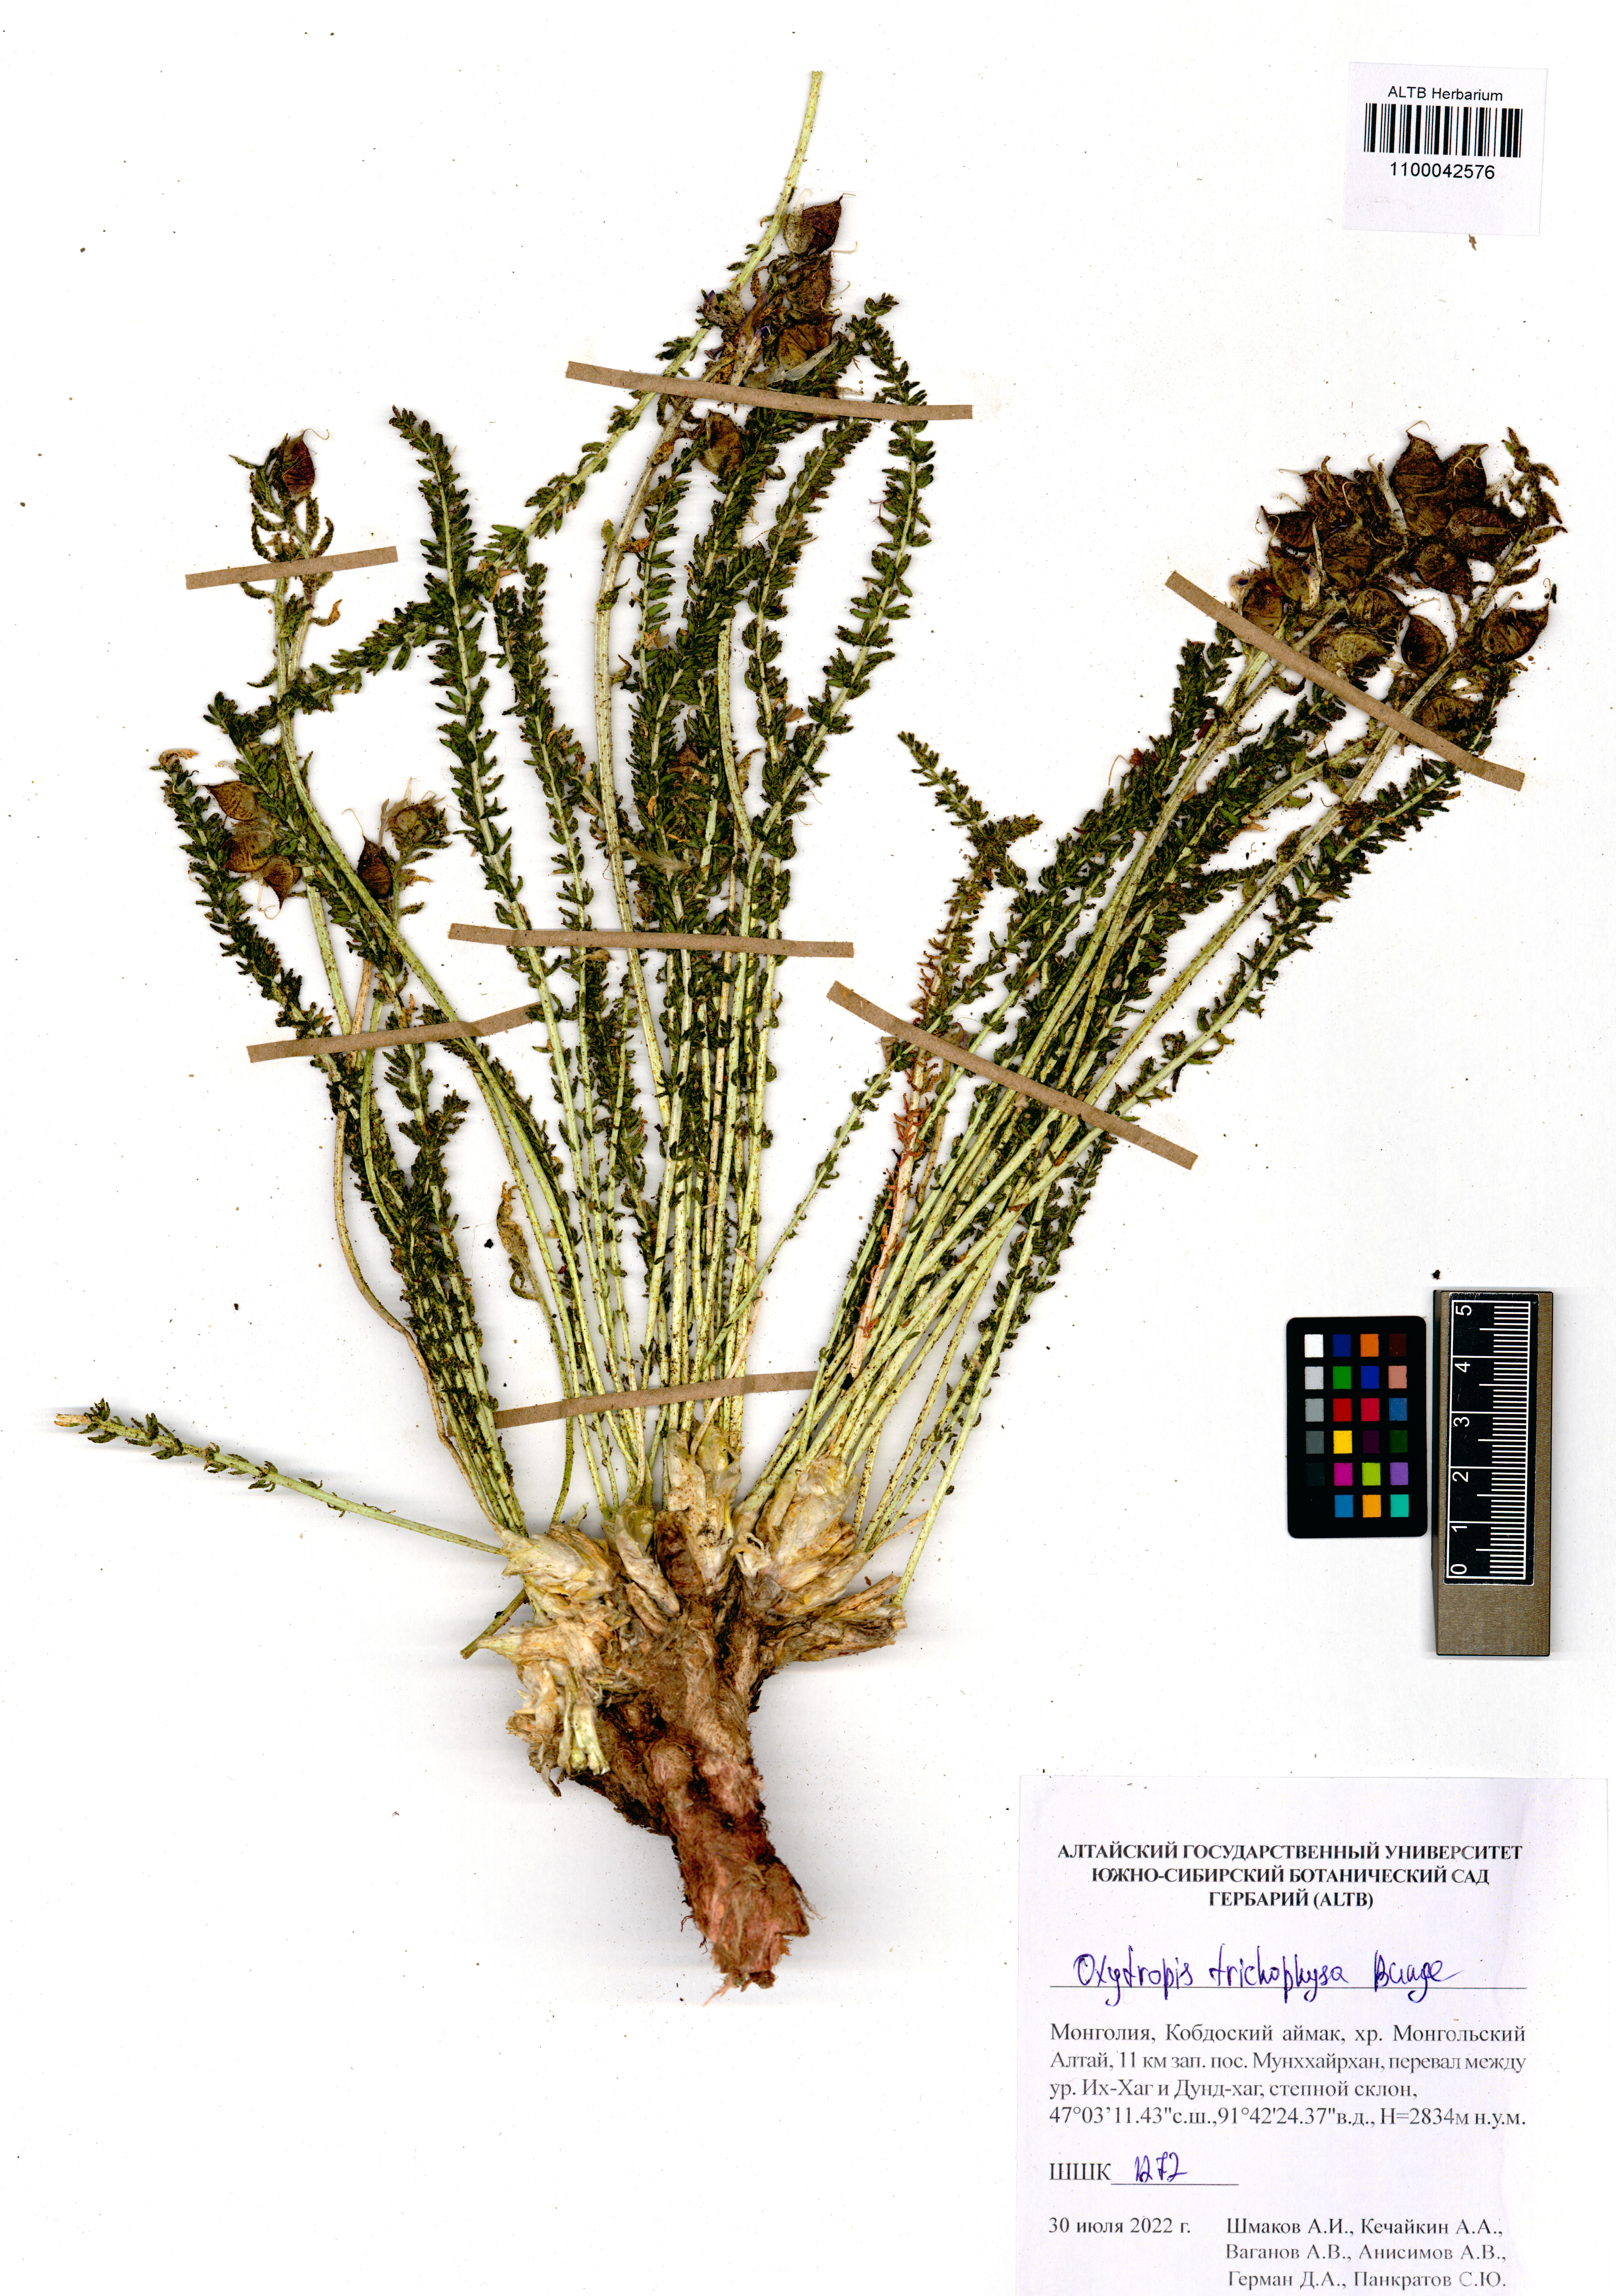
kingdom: Plantae
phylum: Tracheophyta
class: Magnoliopsida
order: Fabales
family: Fabaceae
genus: Oxytropis
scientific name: Oxytropis trichophysa
